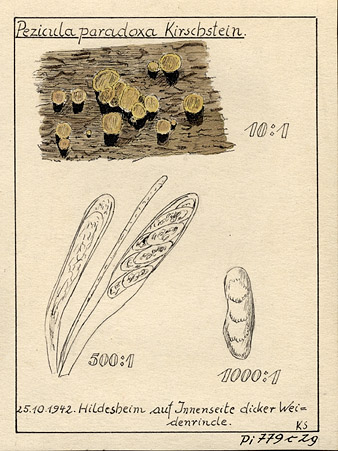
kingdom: Fungi
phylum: Ascomycota
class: Leotiomycetes
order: Helotiales
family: Dermateaceae
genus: Pezicula
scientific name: Pezicula paradoxa
